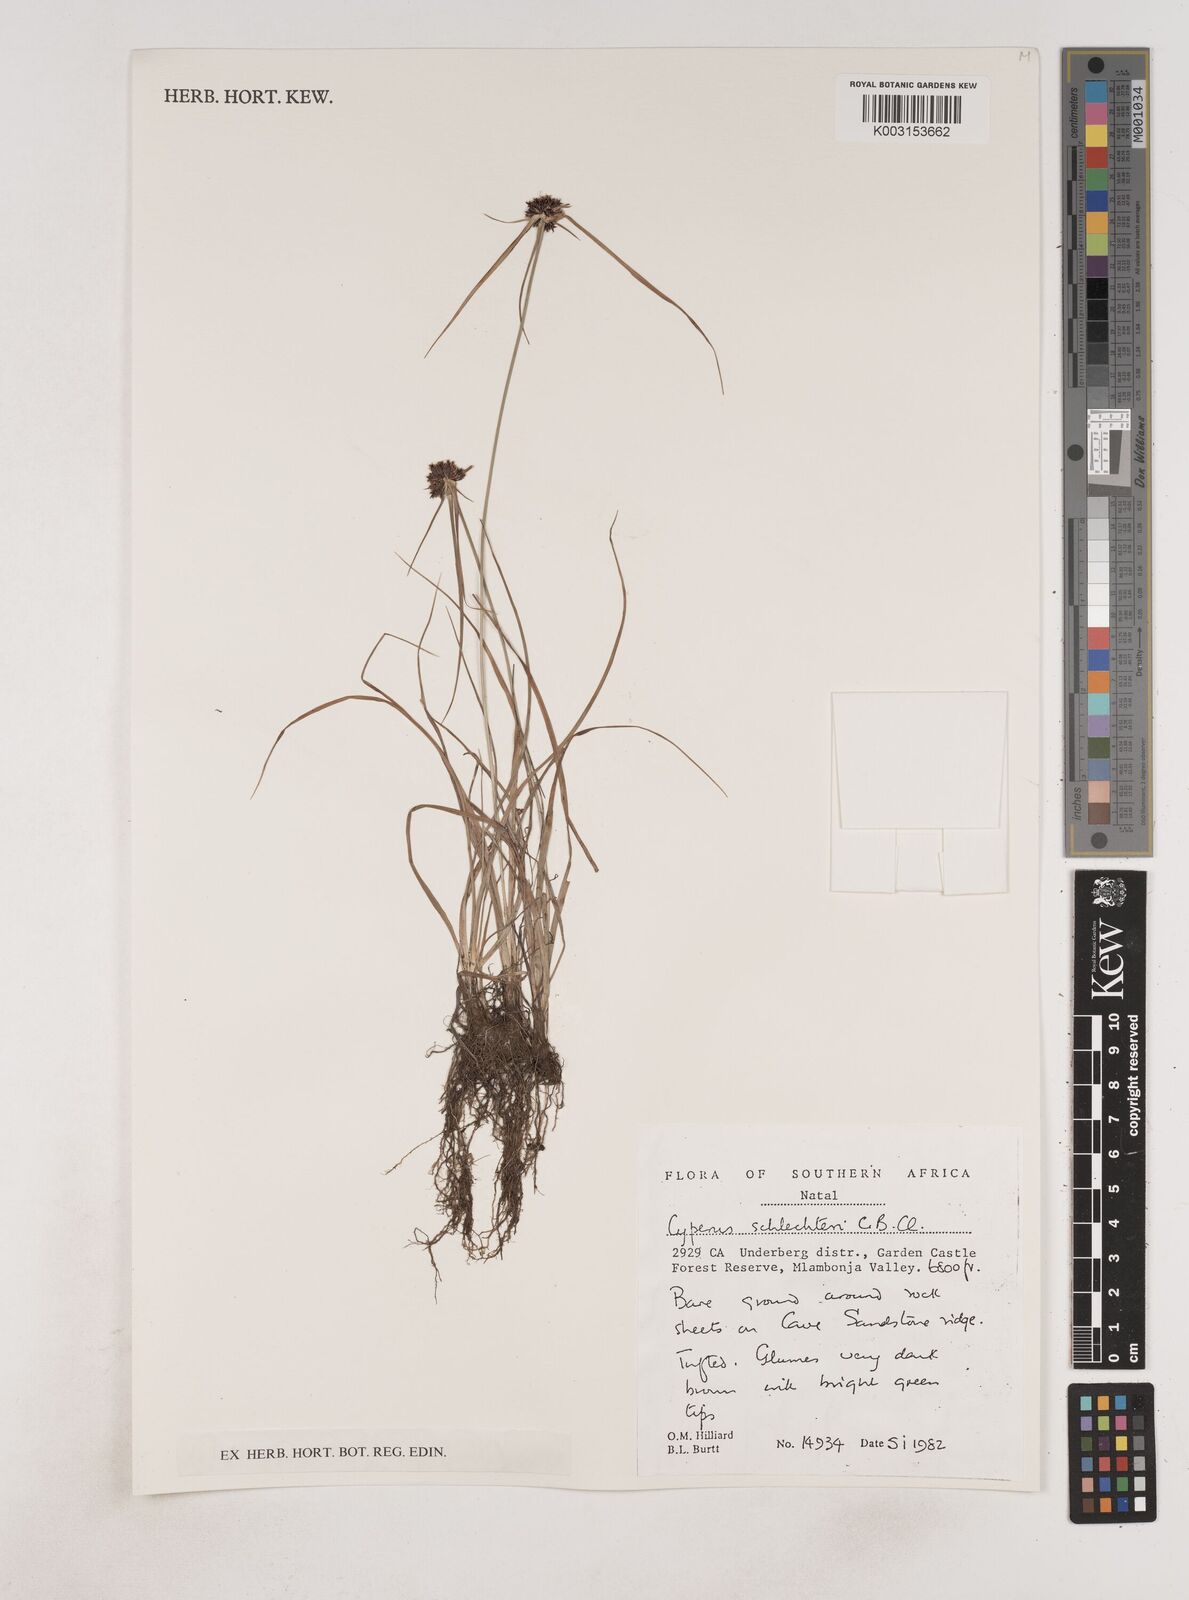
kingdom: Plantae
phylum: Tracheophyta
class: Liliopsida
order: Poales
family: Cyperaceae
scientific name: Cyperaceae
